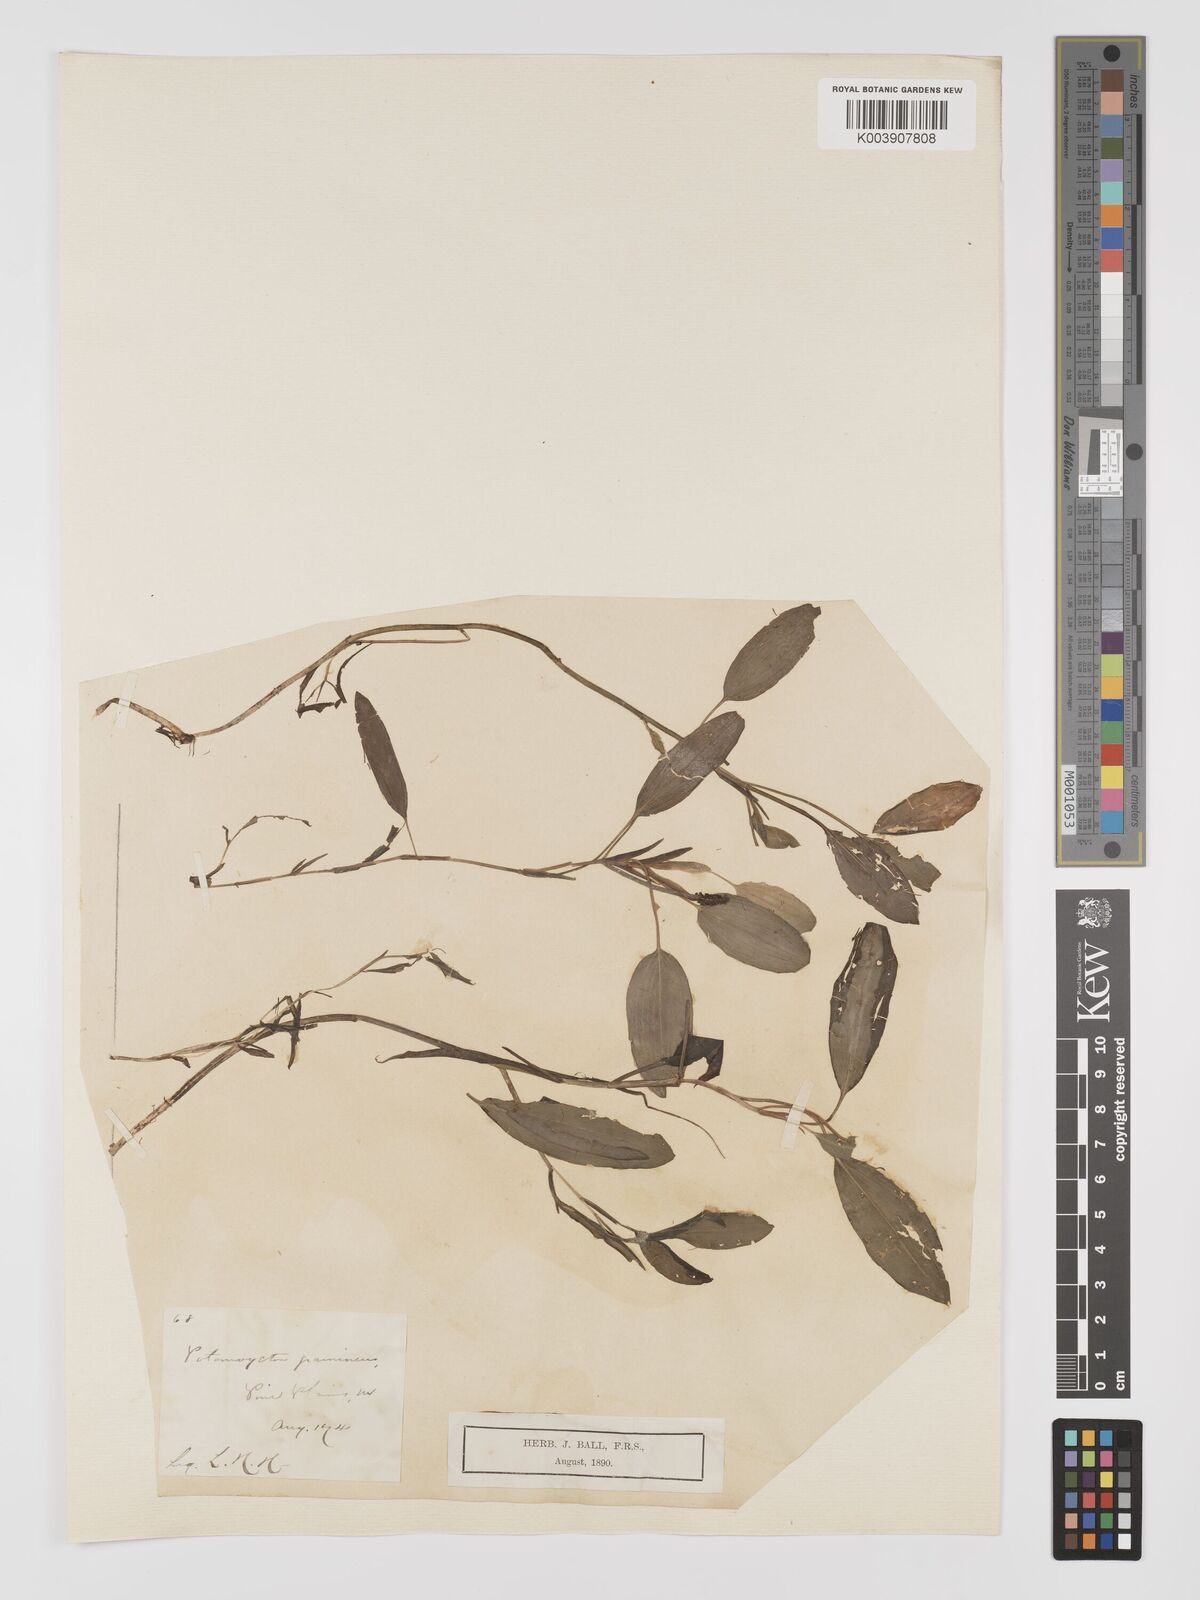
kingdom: Plantae
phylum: Tracheophyta
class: Liliopsida
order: Alismatales
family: Potamogetonaceae
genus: Potamogeton
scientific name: Potamogeton gramineus
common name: Various-leaved pondweed
